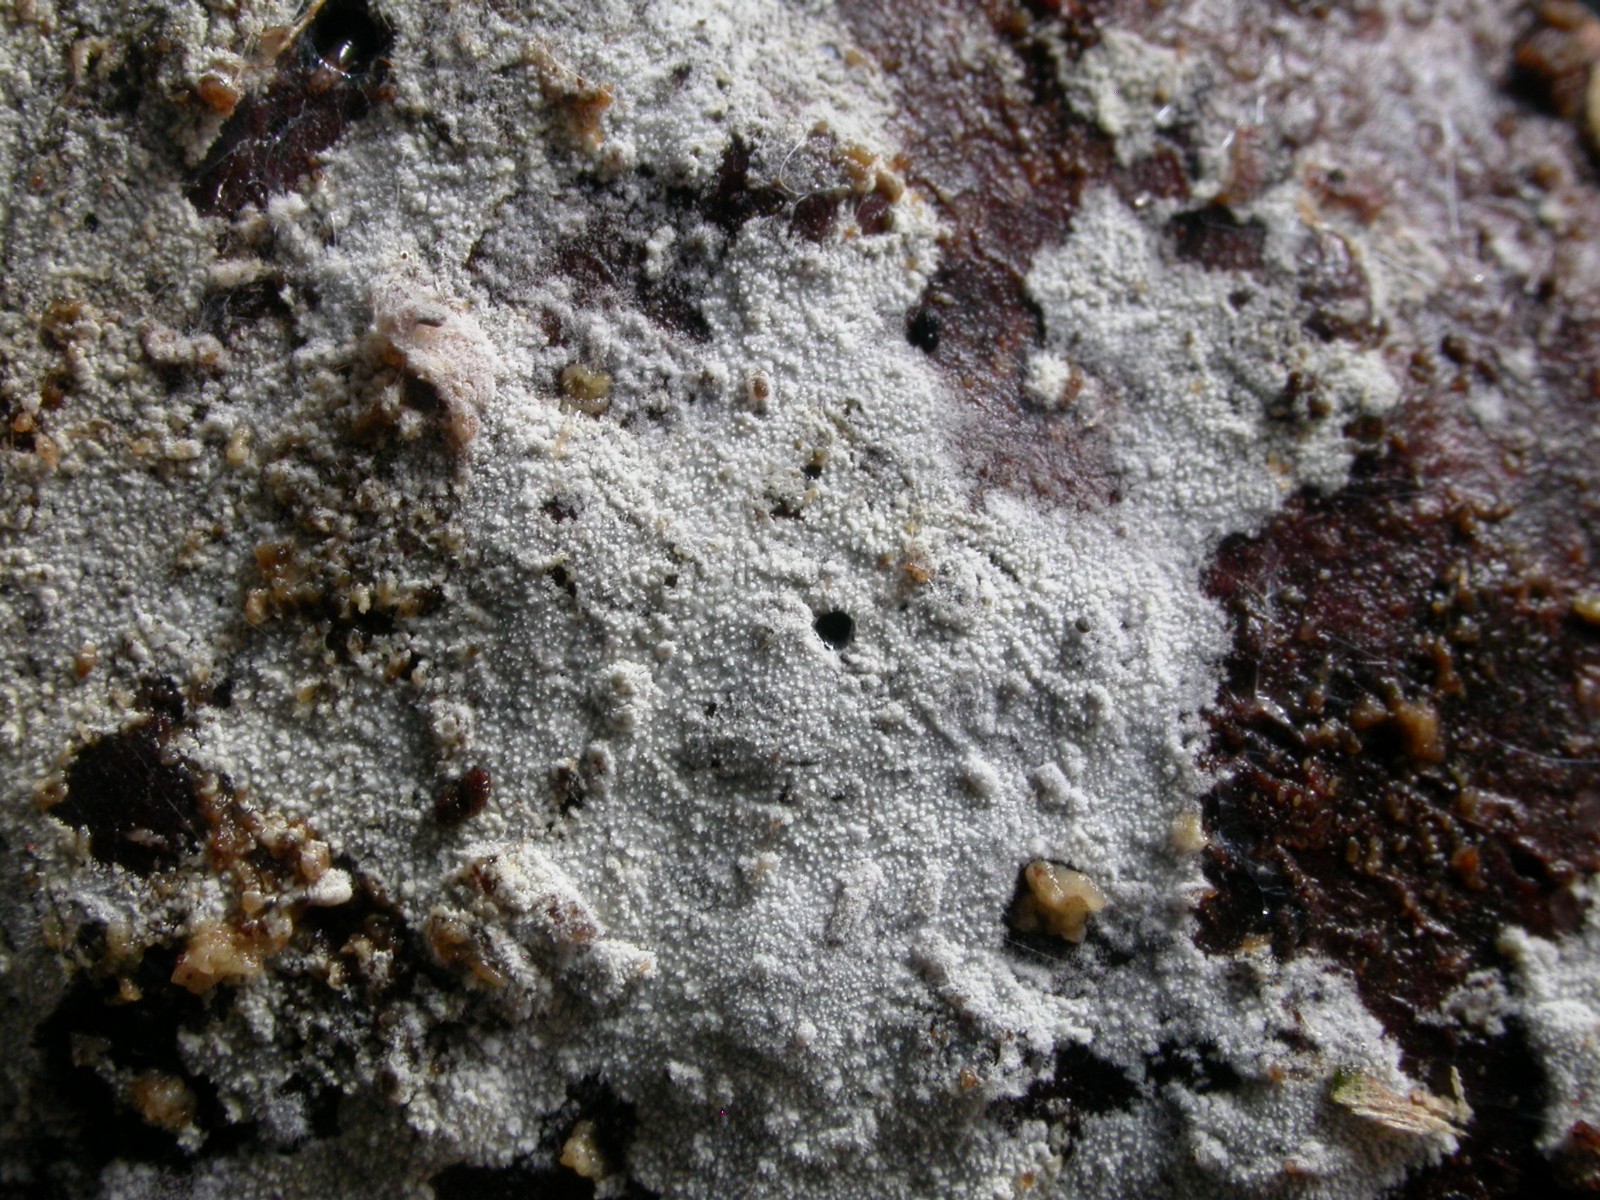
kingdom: Fungi
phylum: Basidiomycota
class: Agaricomycetes
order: Hymenochaetales
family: Schizoporaceae
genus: Xylodon
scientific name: Xylodon brevisetus
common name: tætvortet tandsvamp
